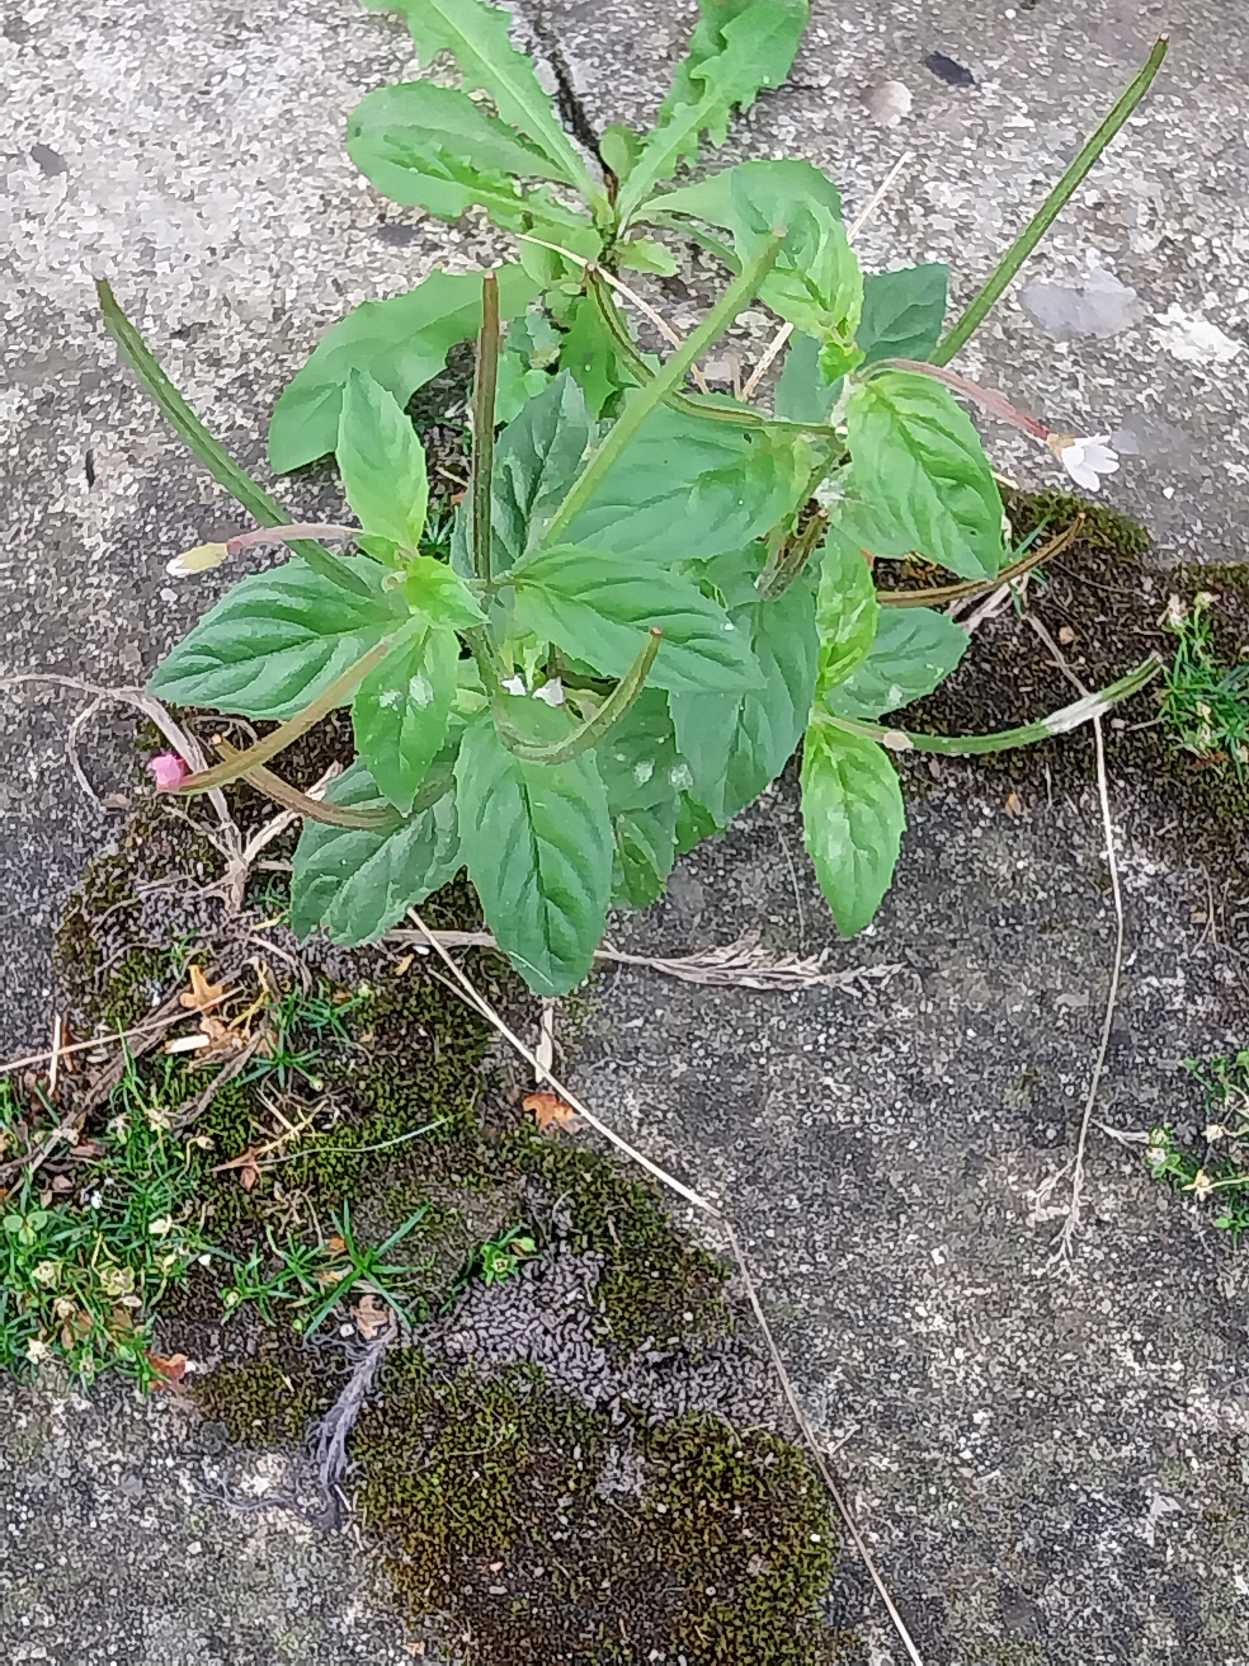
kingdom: Plantae
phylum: Tracheophyta
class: Magnoliopsida
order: Myrtales
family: Onagraceae
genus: Epilobium
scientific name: Epilobium roseum
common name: Rosen-dueurt
